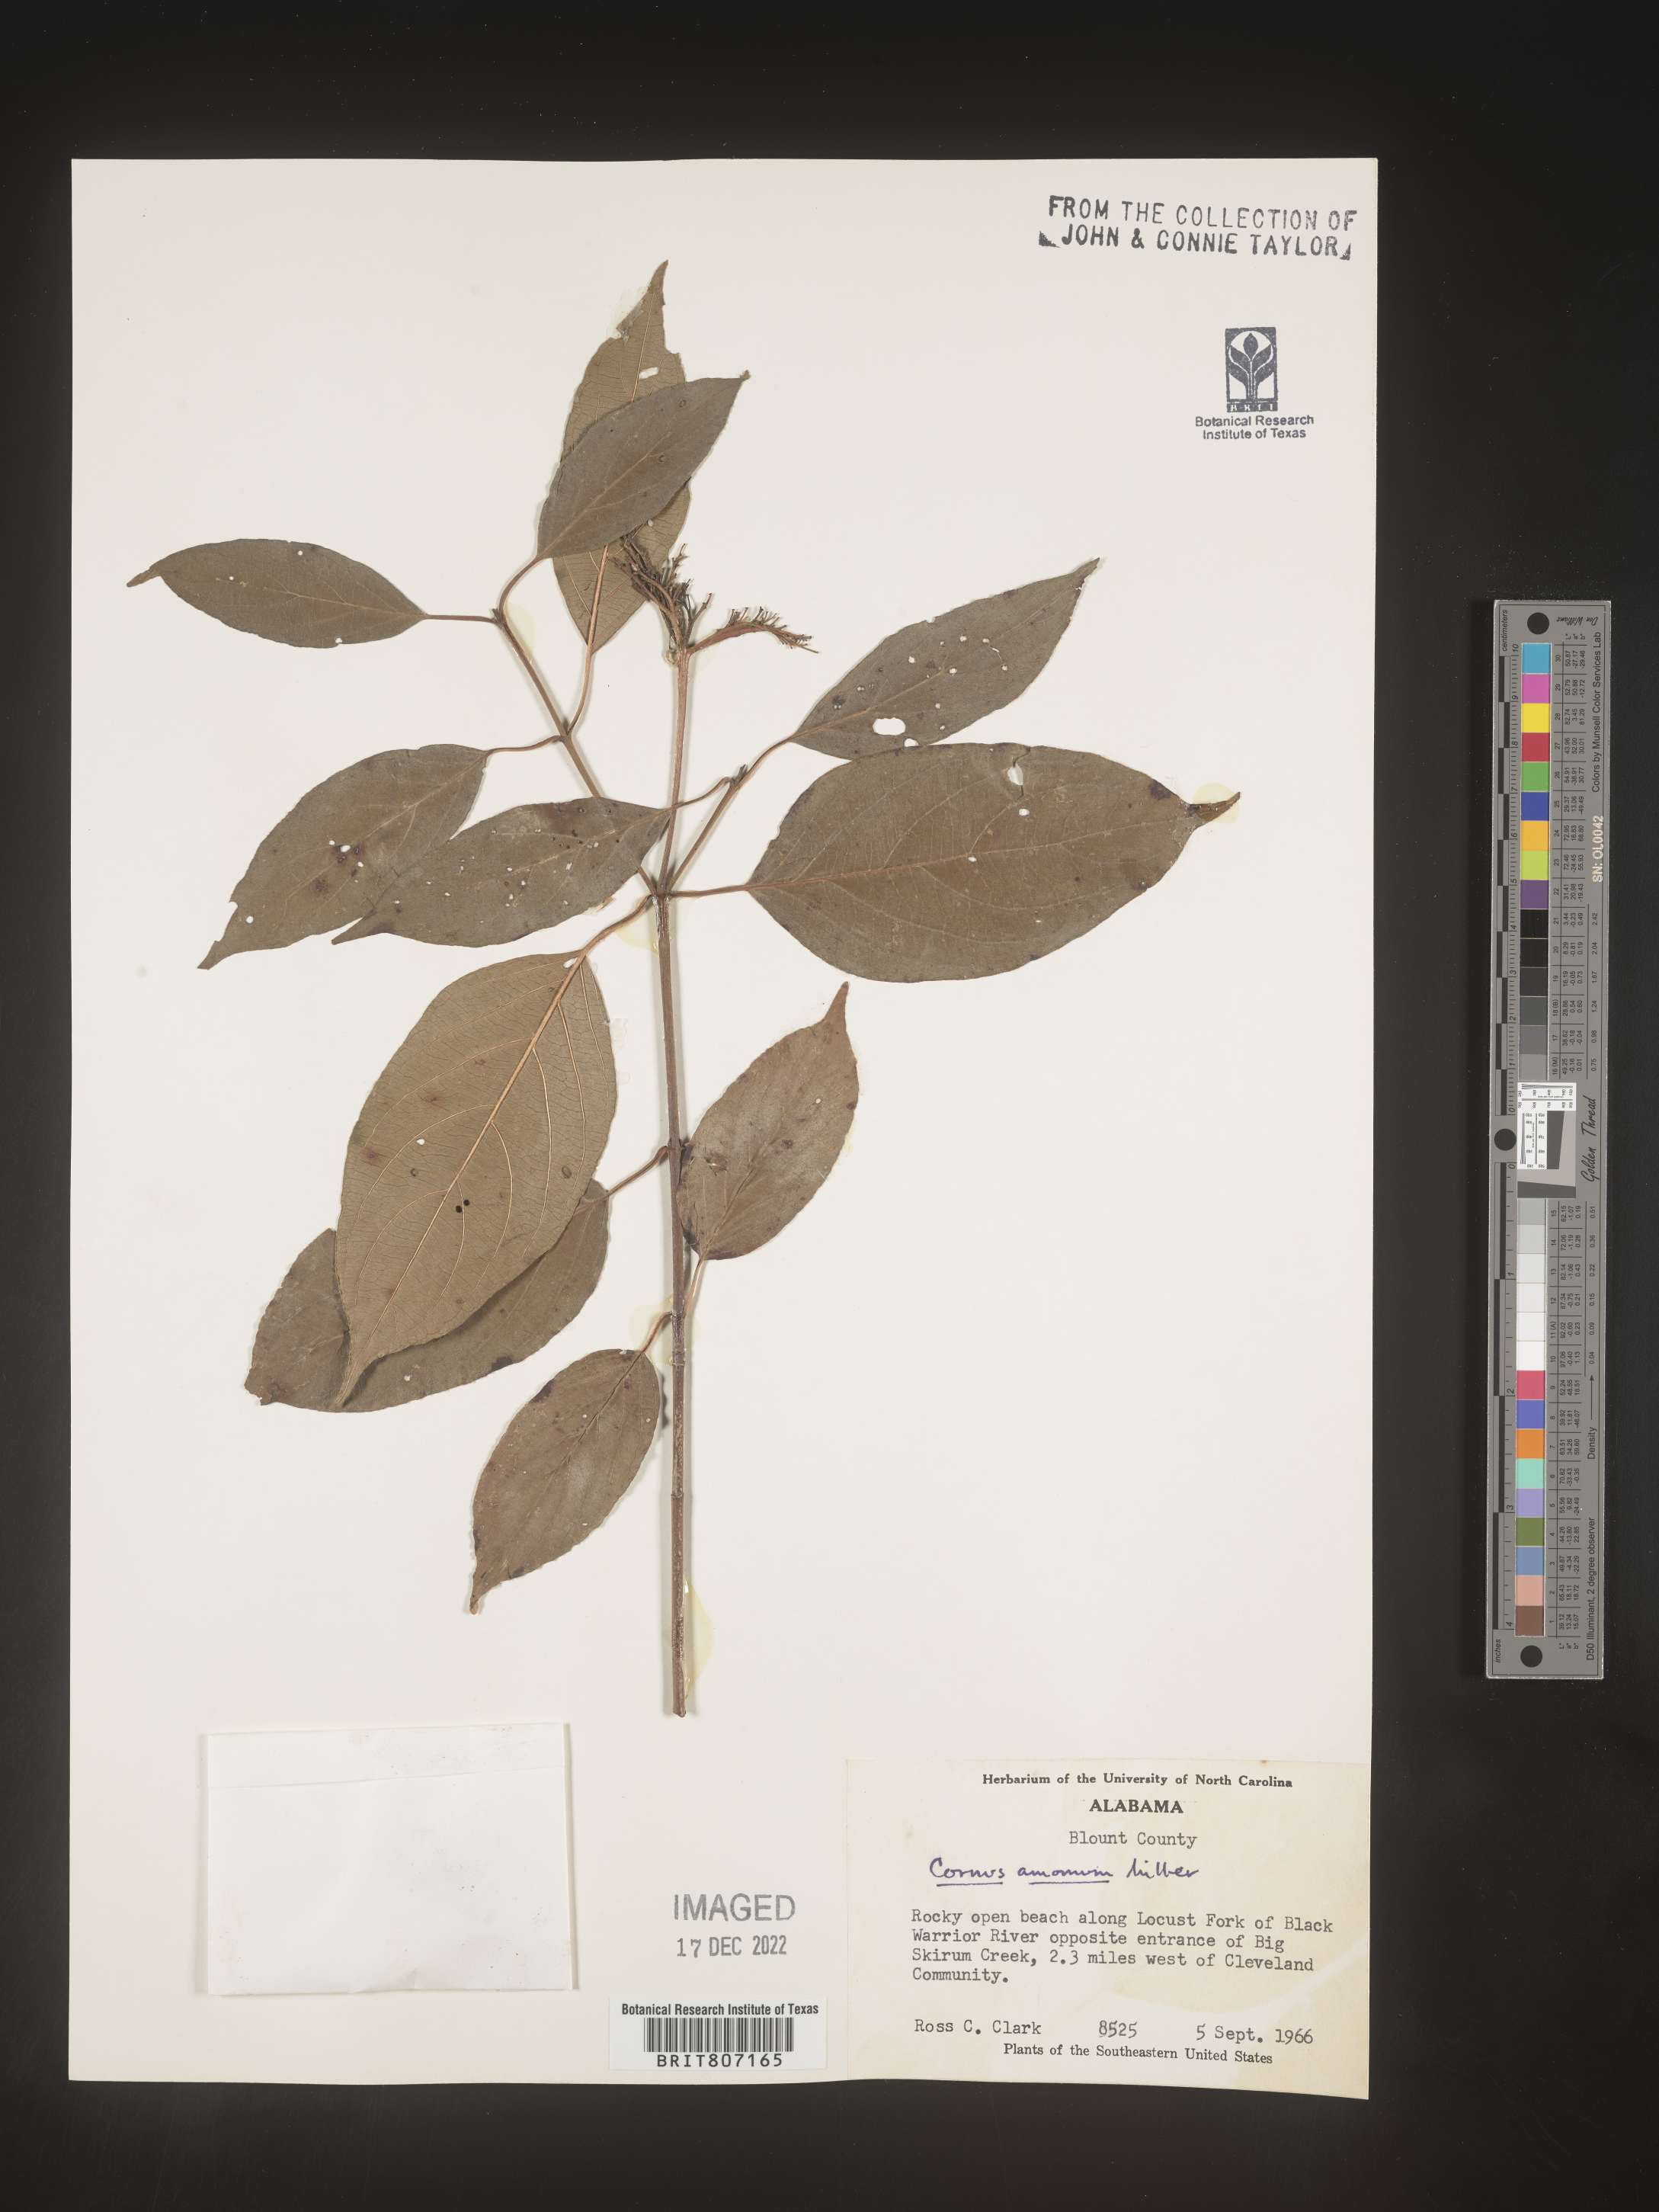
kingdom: Plantae
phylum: Tracheophyta
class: Magnoliopsida
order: Cornales
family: Cornaceae
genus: Cornus
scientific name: Cornus amomum
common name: Silky dogwood
